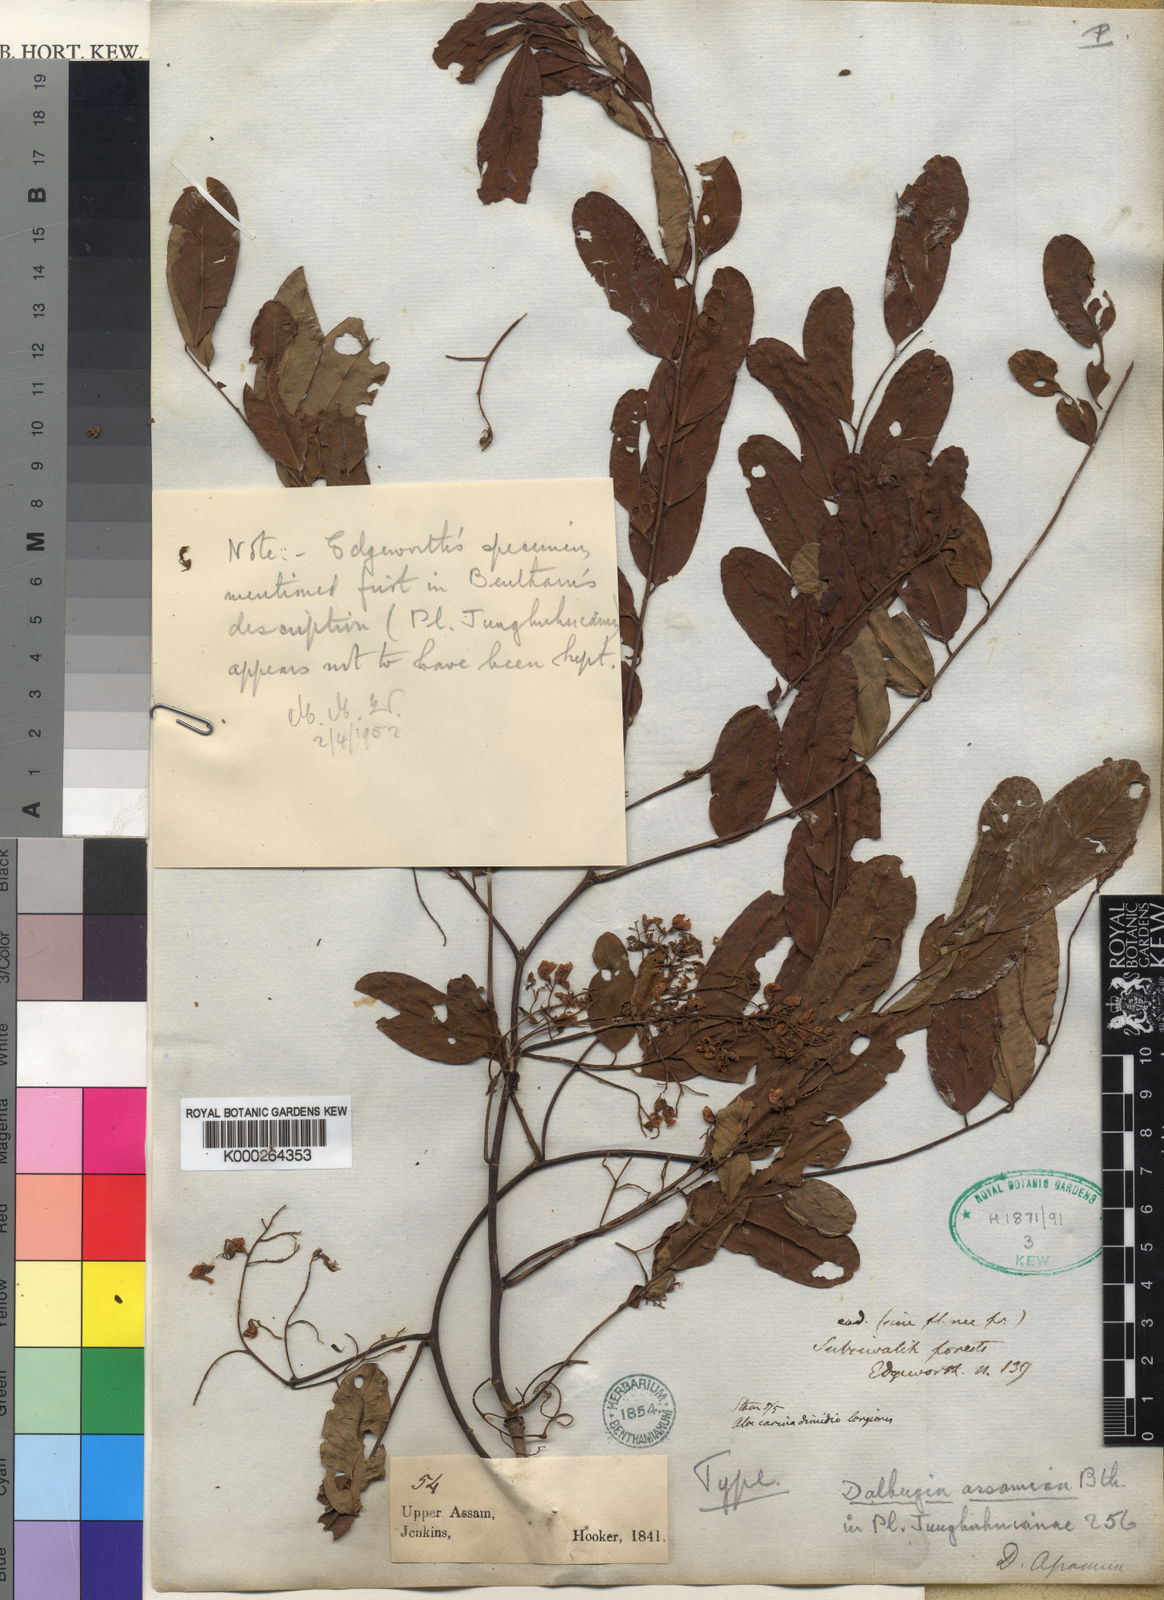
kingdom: Plantae
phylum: Tracheophyta
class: Magnoliopsida
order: Fabales
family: Fabaceae
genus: Dalbergia
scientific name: Dalbergia assamica
